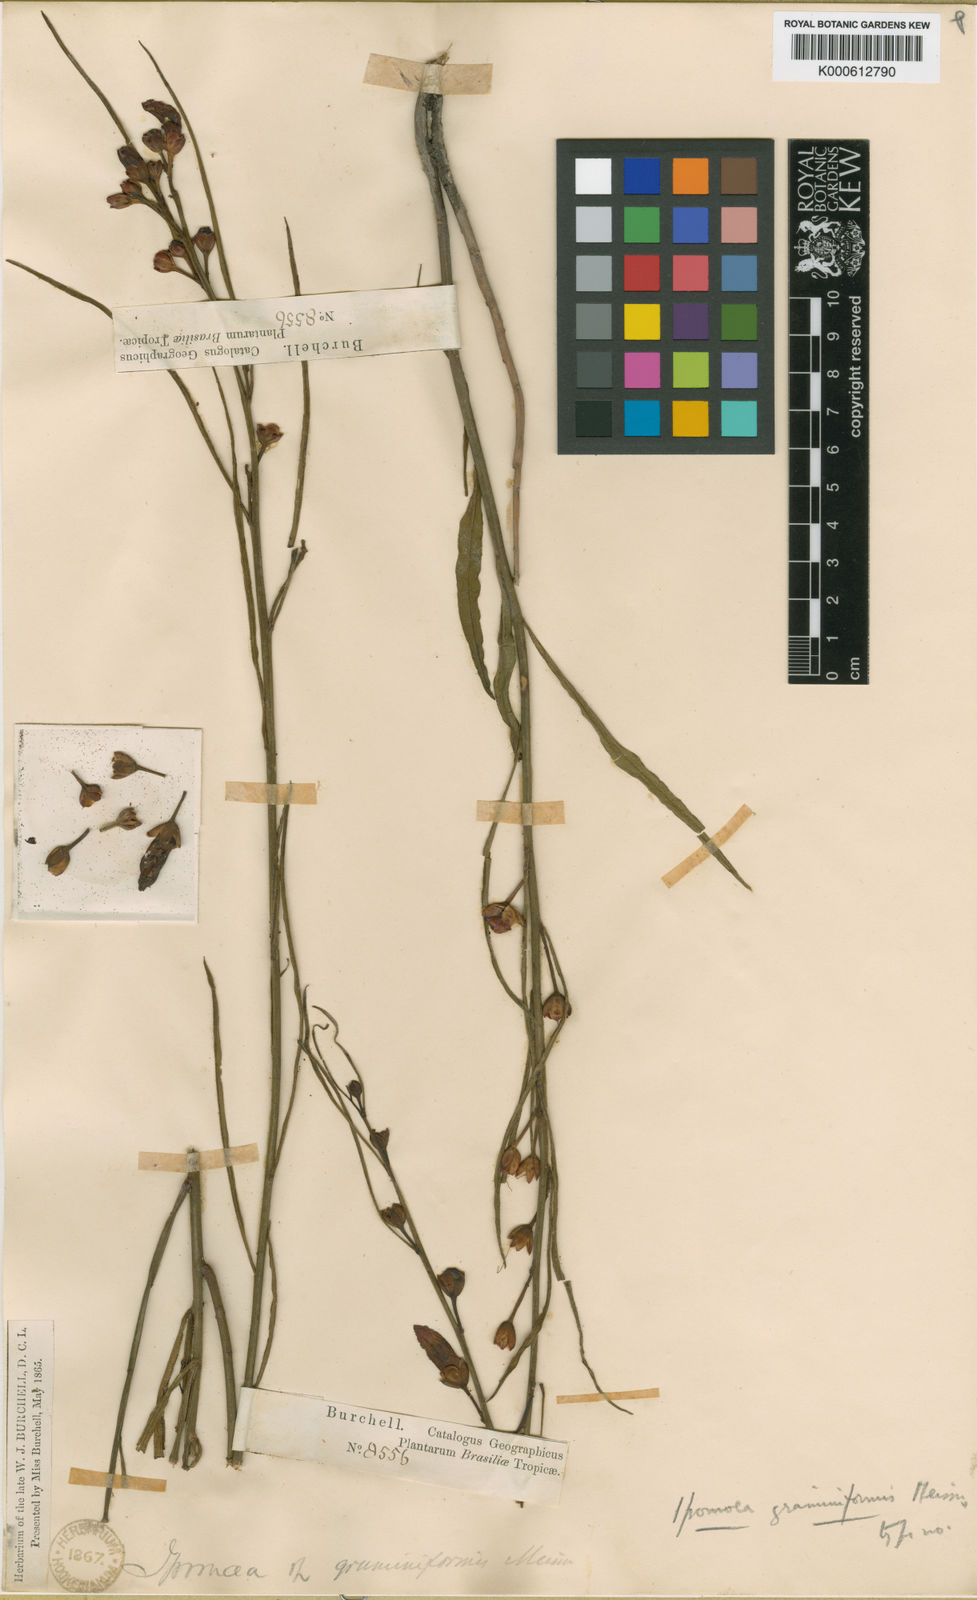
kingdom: Plantae
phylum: Tracheophyta
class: Magnoliopsida
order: Solanales
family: Convolvulaceae
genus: Ipomoea
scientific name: Ipomoea schomburgkii
